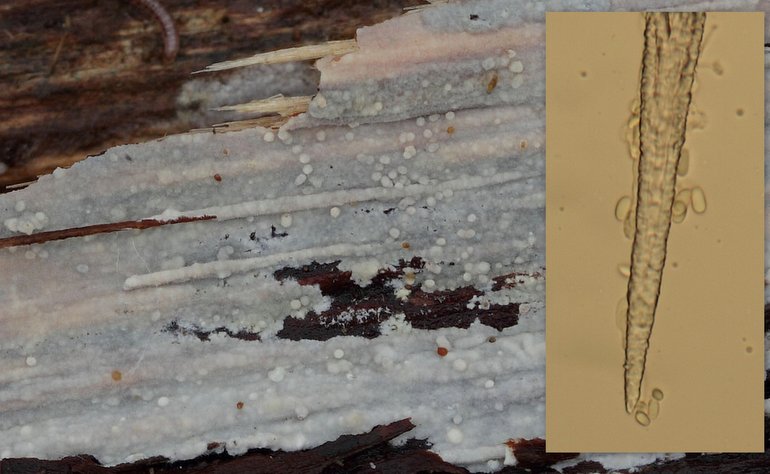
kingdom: Fungi
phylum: Basidiomycota
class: Agaricomycetes
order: Hymenochaetales
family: Rickenellaceae
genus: Peniophorella
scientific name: Peniophorella pubera
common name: dunet kalkskind
